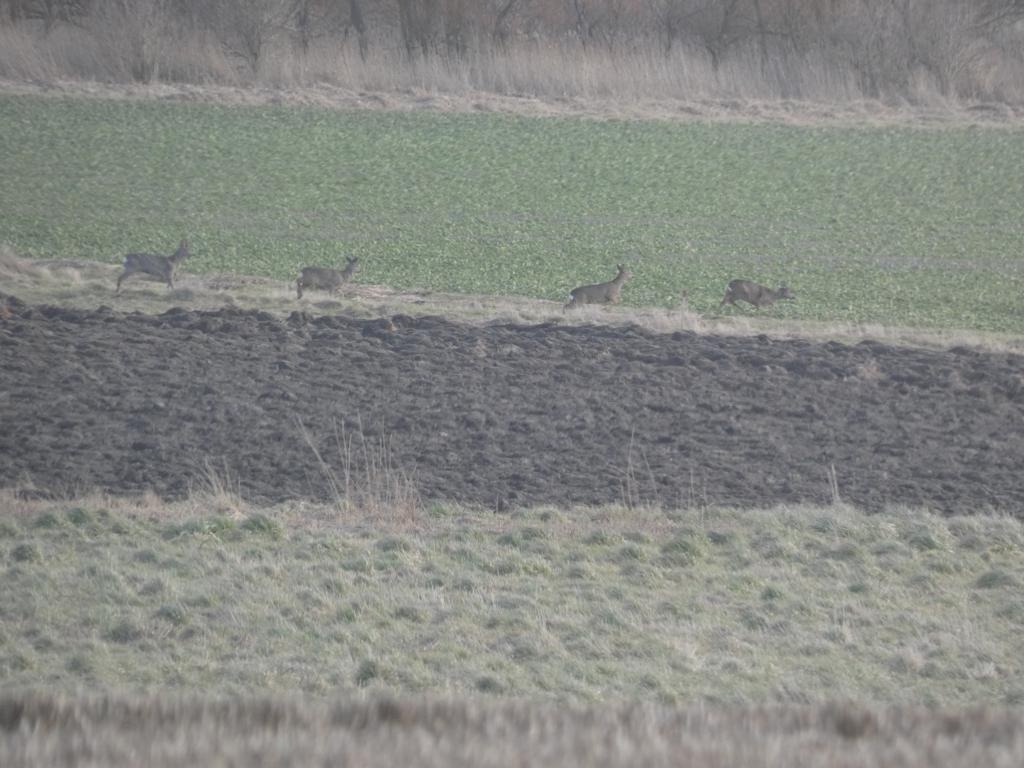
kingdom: Animalia
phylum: Chordata
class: Mammalia
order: Artiodactyla
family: Cervidae
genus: Capreolus
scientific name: Capreolus capreolus
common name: Rådyr
